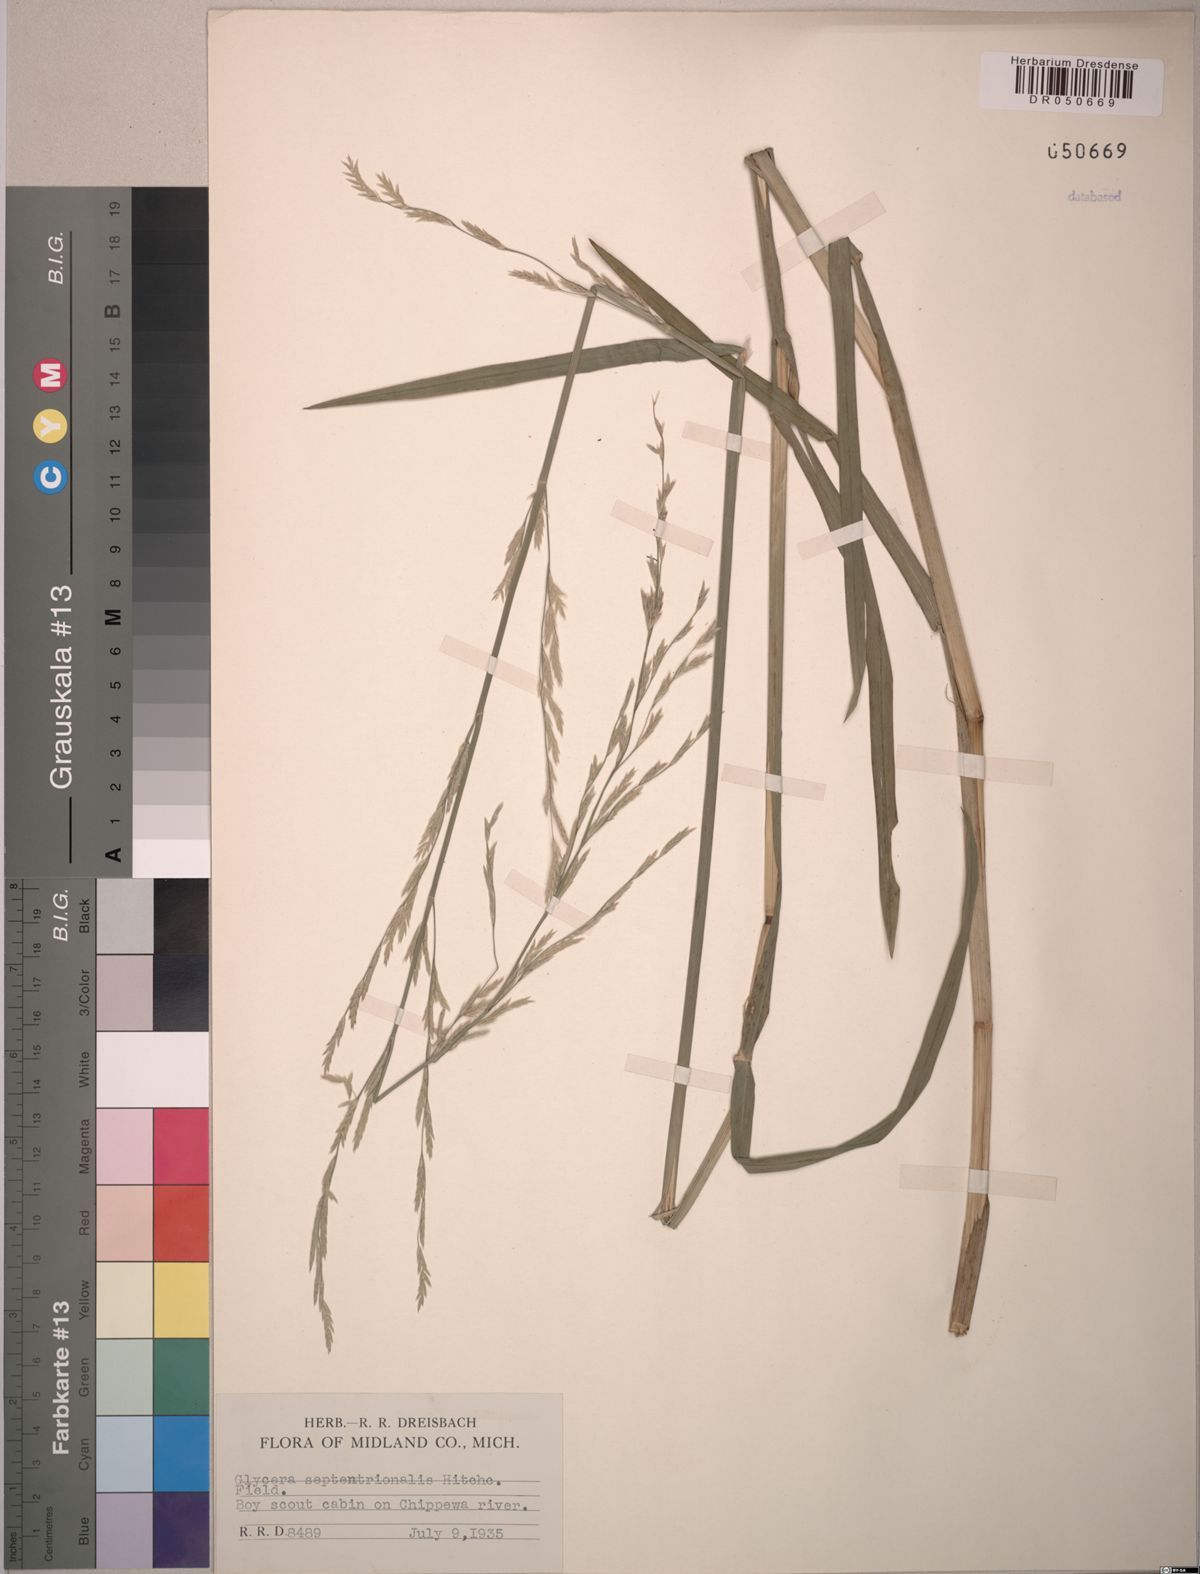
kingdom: Plantae
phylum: Tracheophyta
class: Liliopsida
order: Poales
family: Poaceae
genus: Glyceria
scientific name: Glyceria septentrionalis
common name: Eastern mannagrass
